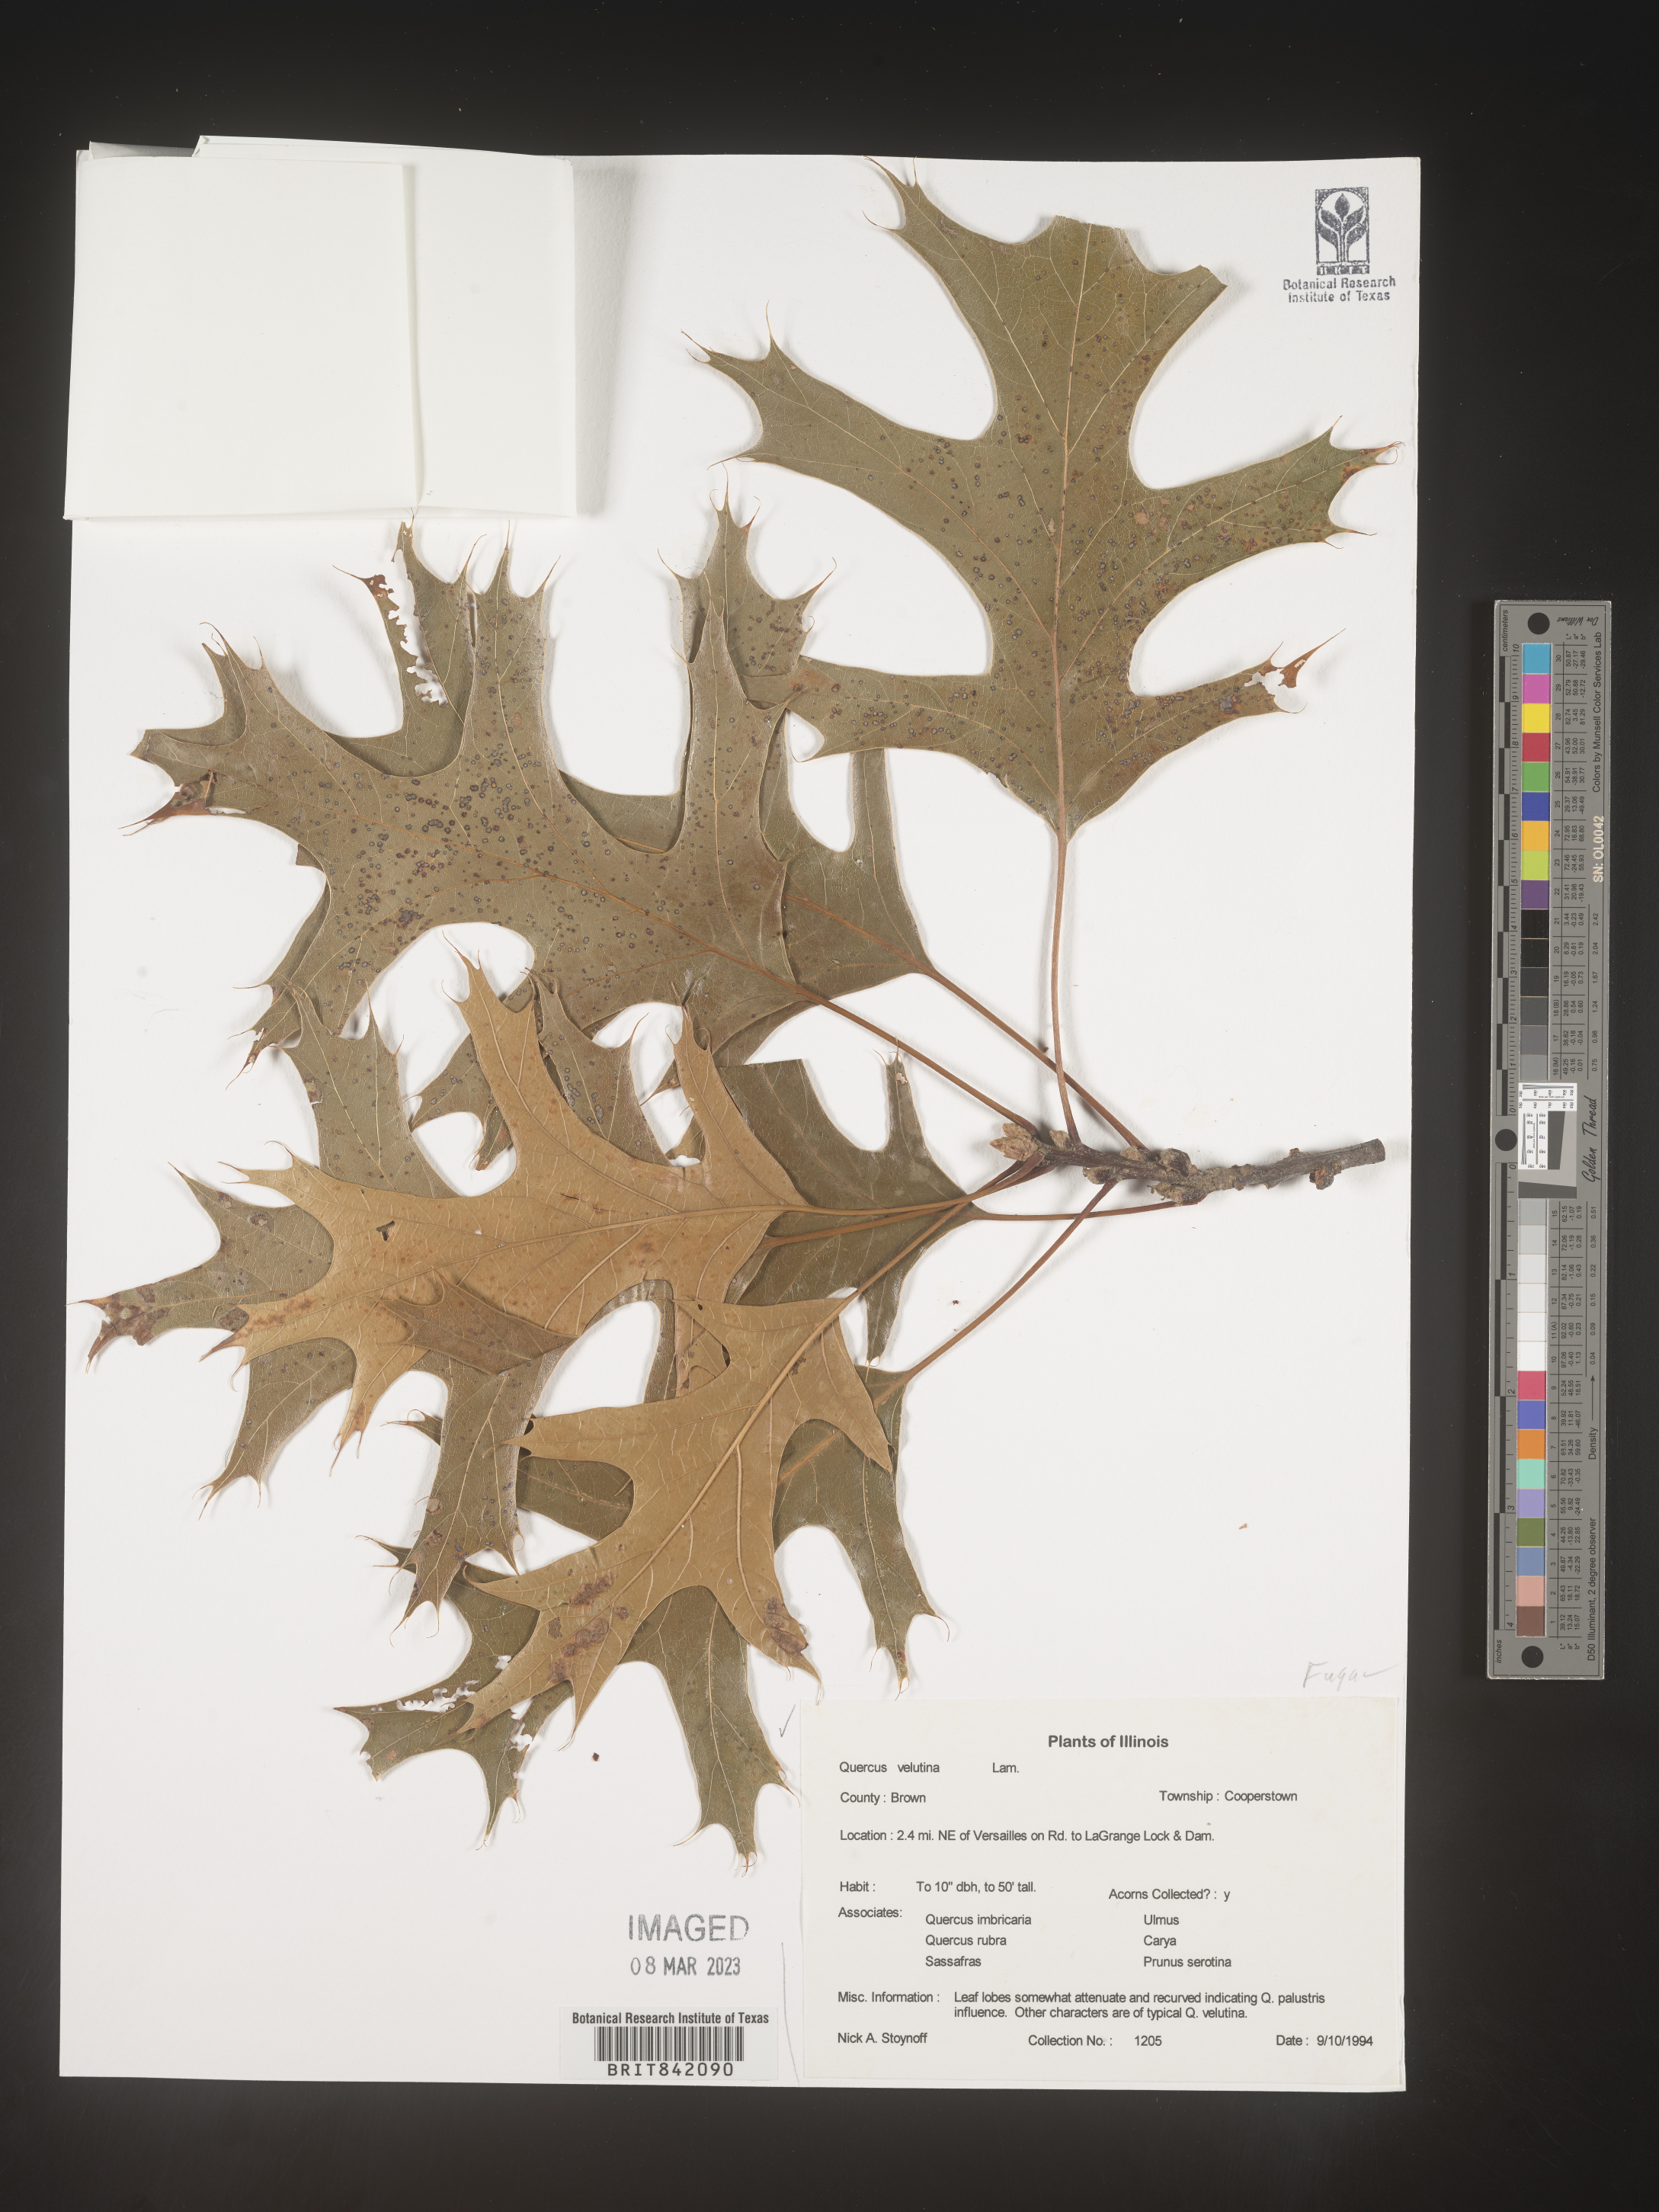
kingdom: Plantae
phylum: Tracheophyta
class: Magnoliopsida
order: Fagales
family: Fagaceae
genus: Quercus
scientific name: Quercus velutina
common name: Black oak
